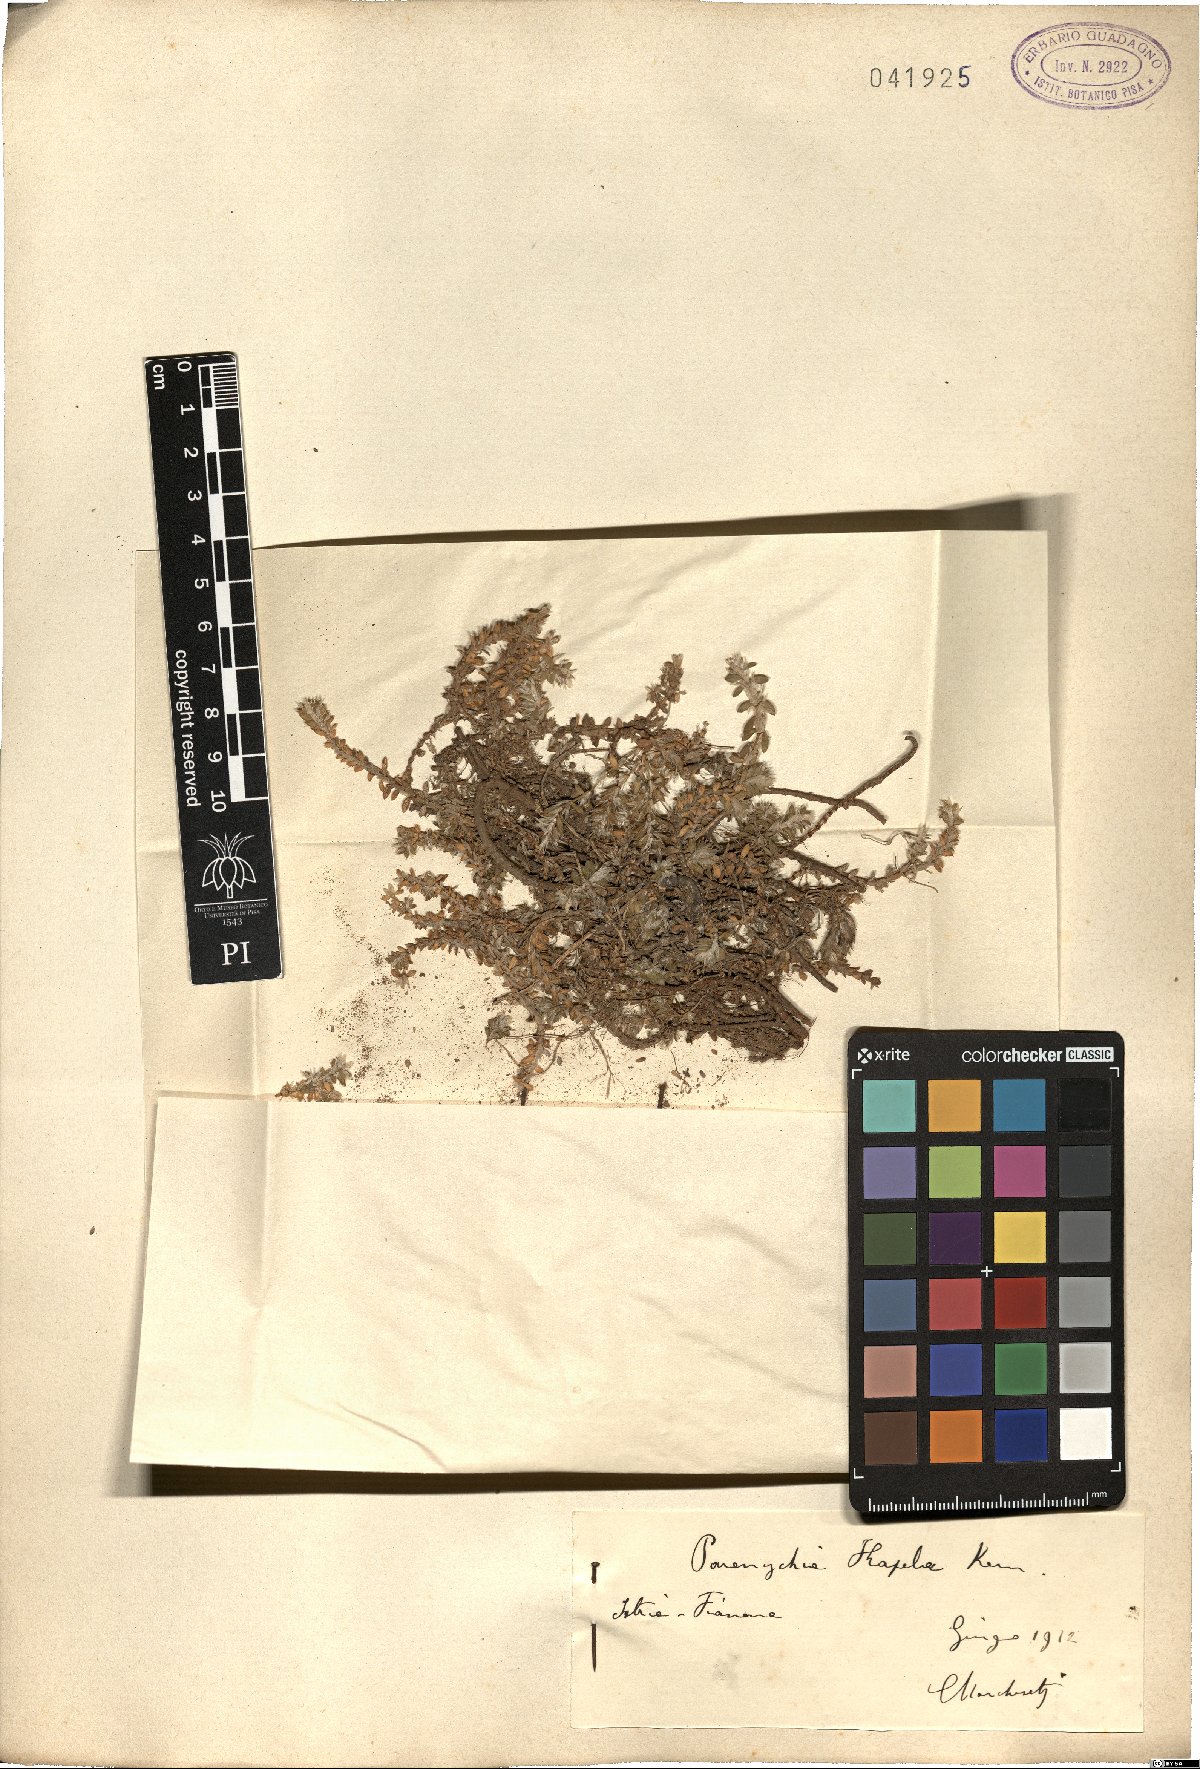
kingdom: Plantae
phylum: Tracheophyta
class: Magnoliopsida
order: Caryophyllales
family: Caryophyllaceae
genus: Paronychia
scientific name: Paronychia kapela
